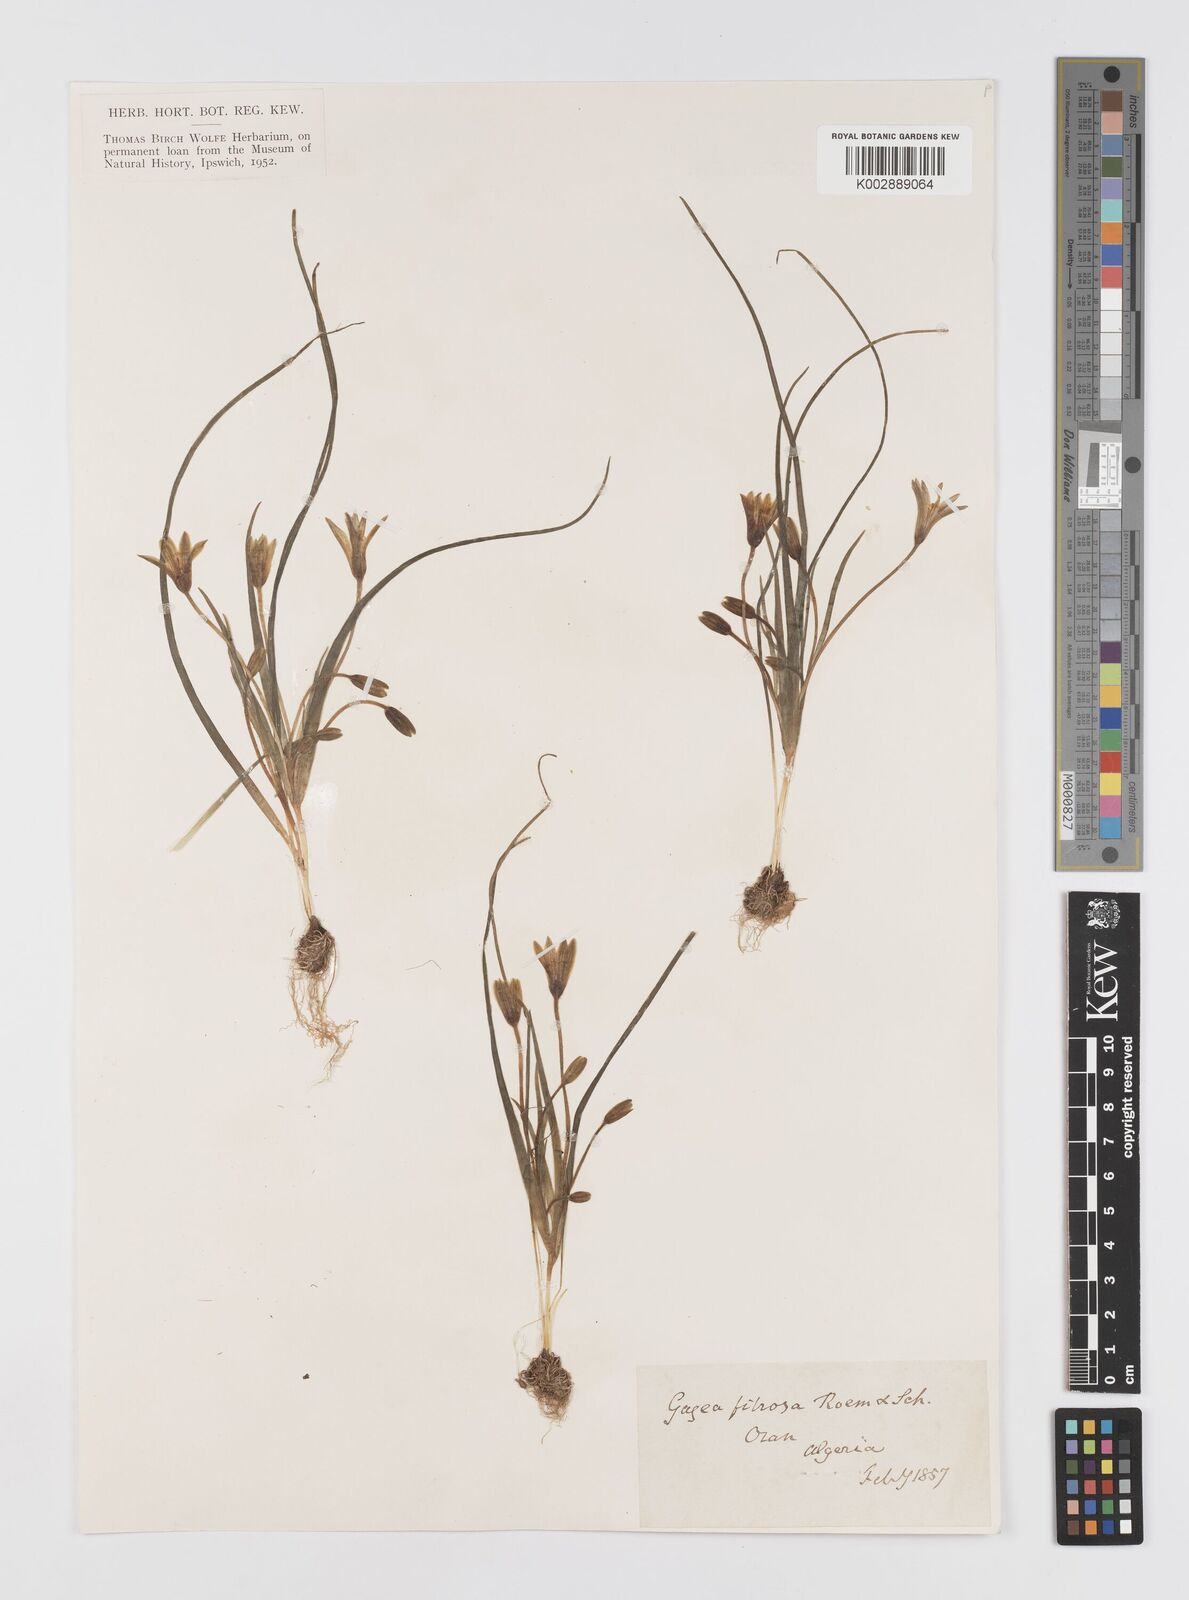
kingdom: Plantae
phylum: Tracheophyta
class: Liliopsida
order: Liliales
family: Liliaceae
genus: Gagea
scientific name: Gagea fibrosa
